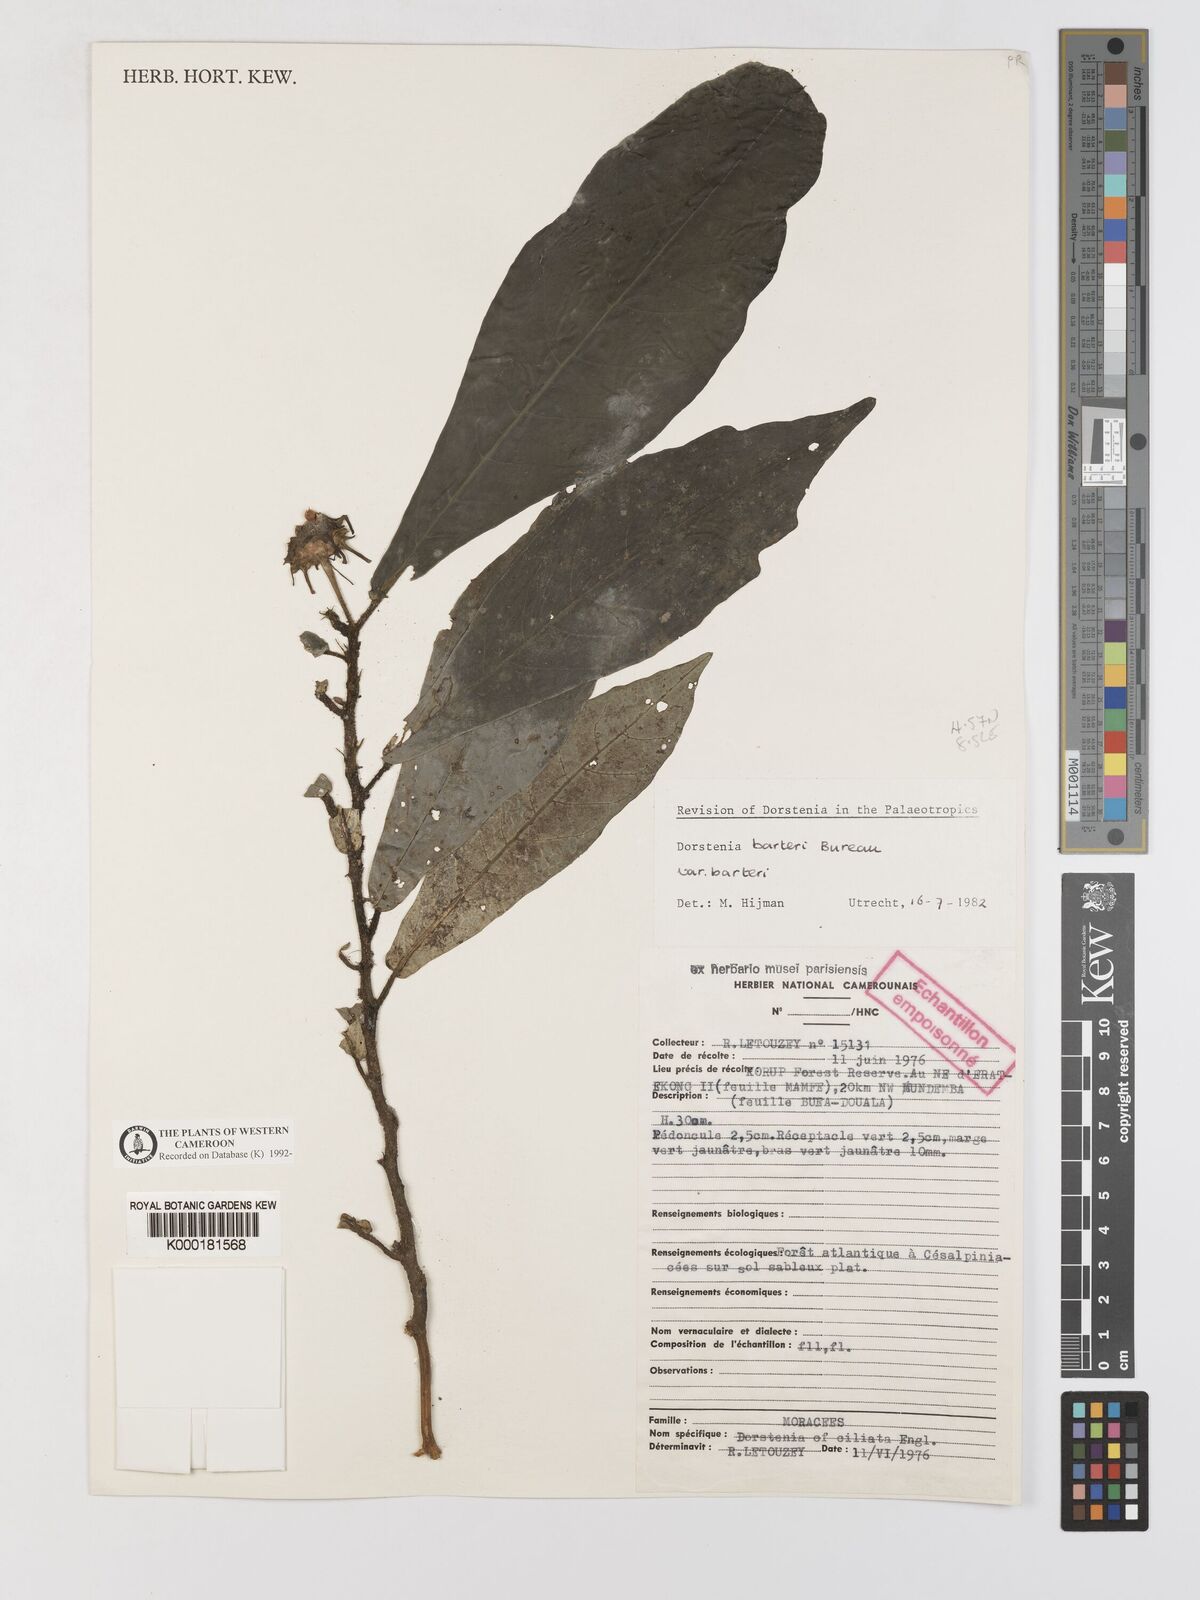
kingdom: Plantae
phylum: Tracheophyta
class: Magnoliopsida
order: Rosales
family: Moraceae
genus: Dorstenia
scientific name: Dorstenia barteri
